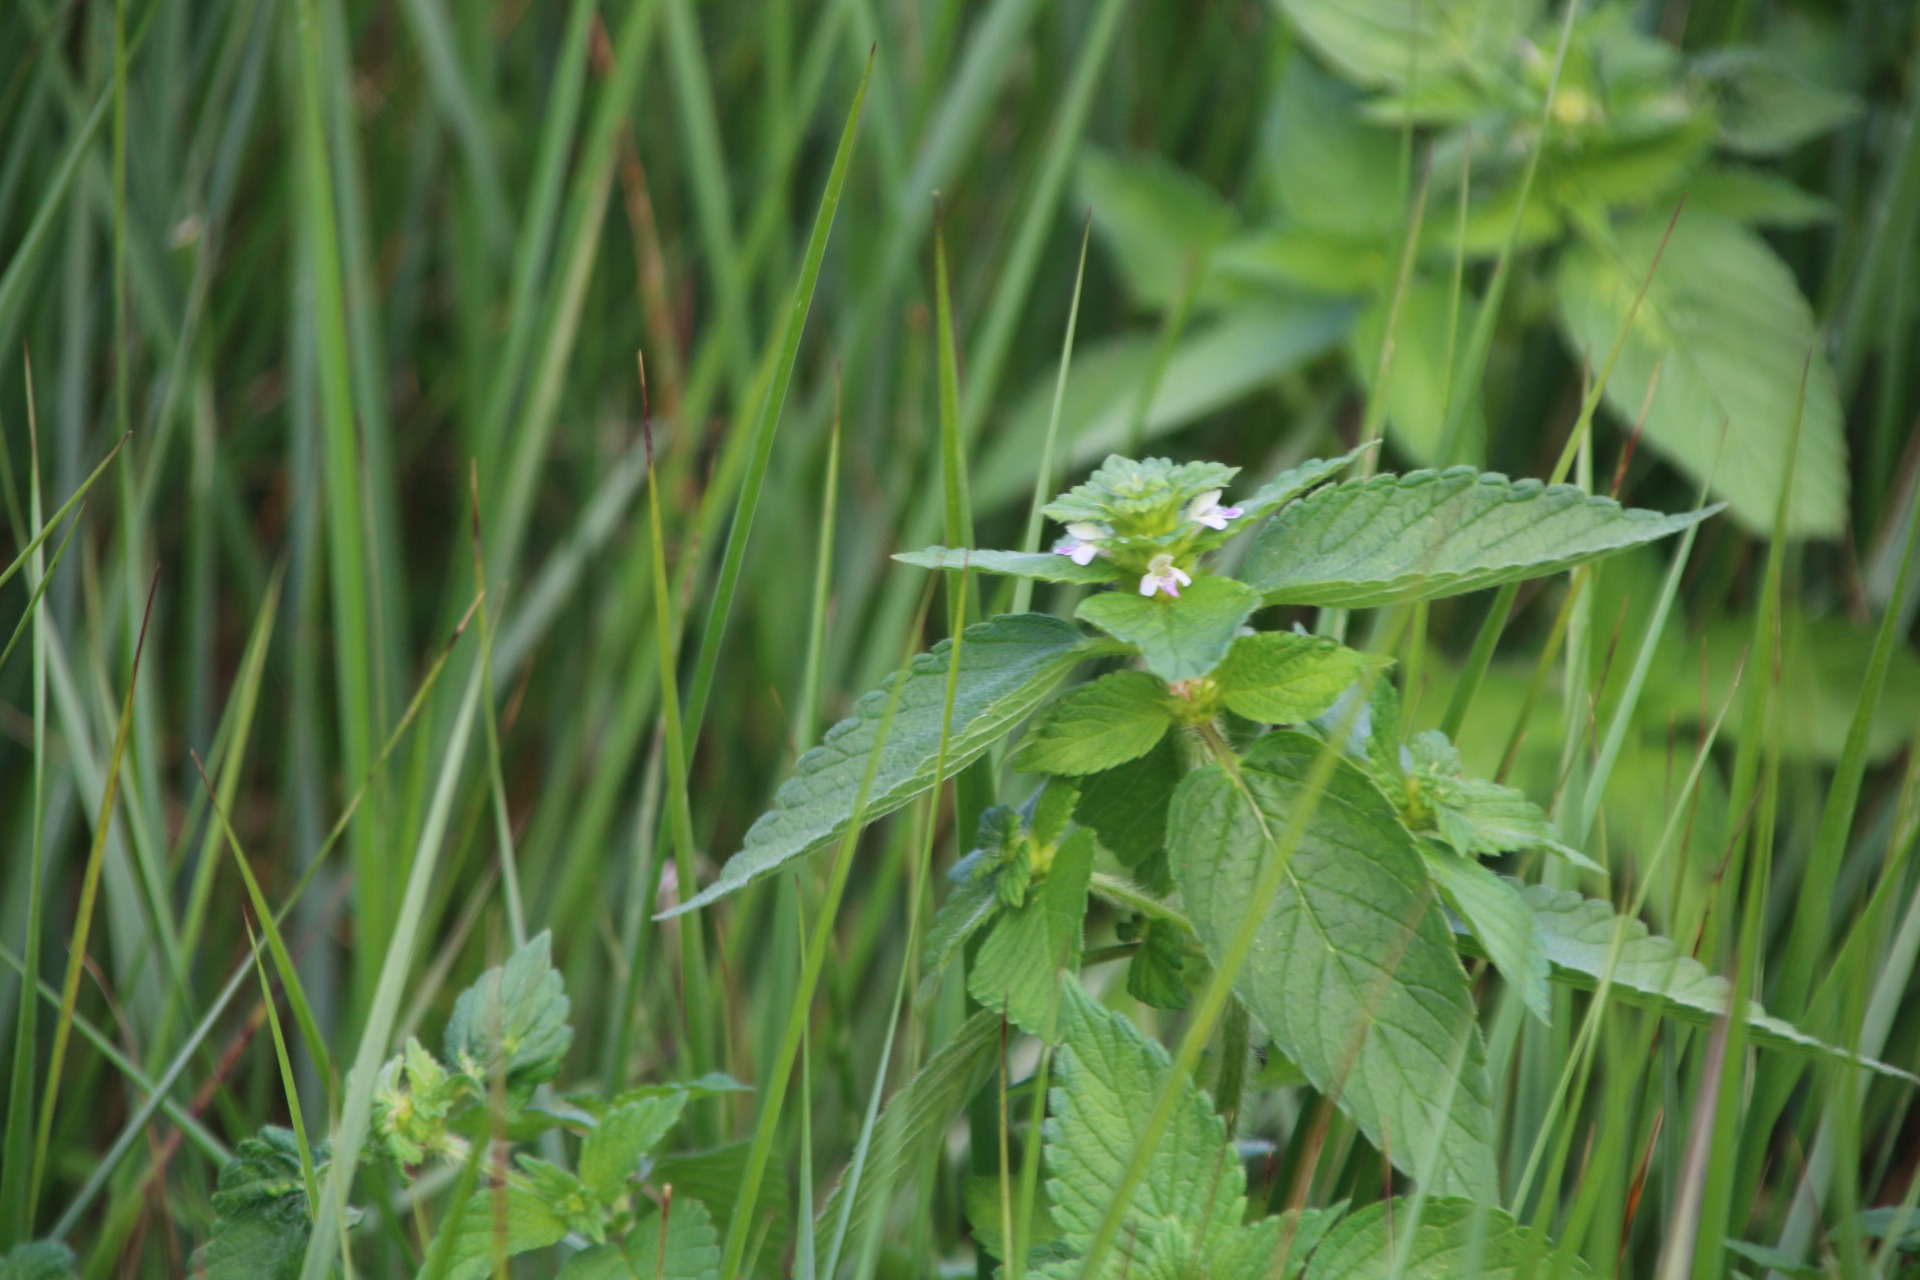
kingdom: Plantae
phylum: Tracheophyta
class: Magnoliopsida
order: Lamiales
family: Lamiaceae
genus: Galeopsis
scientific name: Galeopsis bifida
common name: Skov-hanekro
